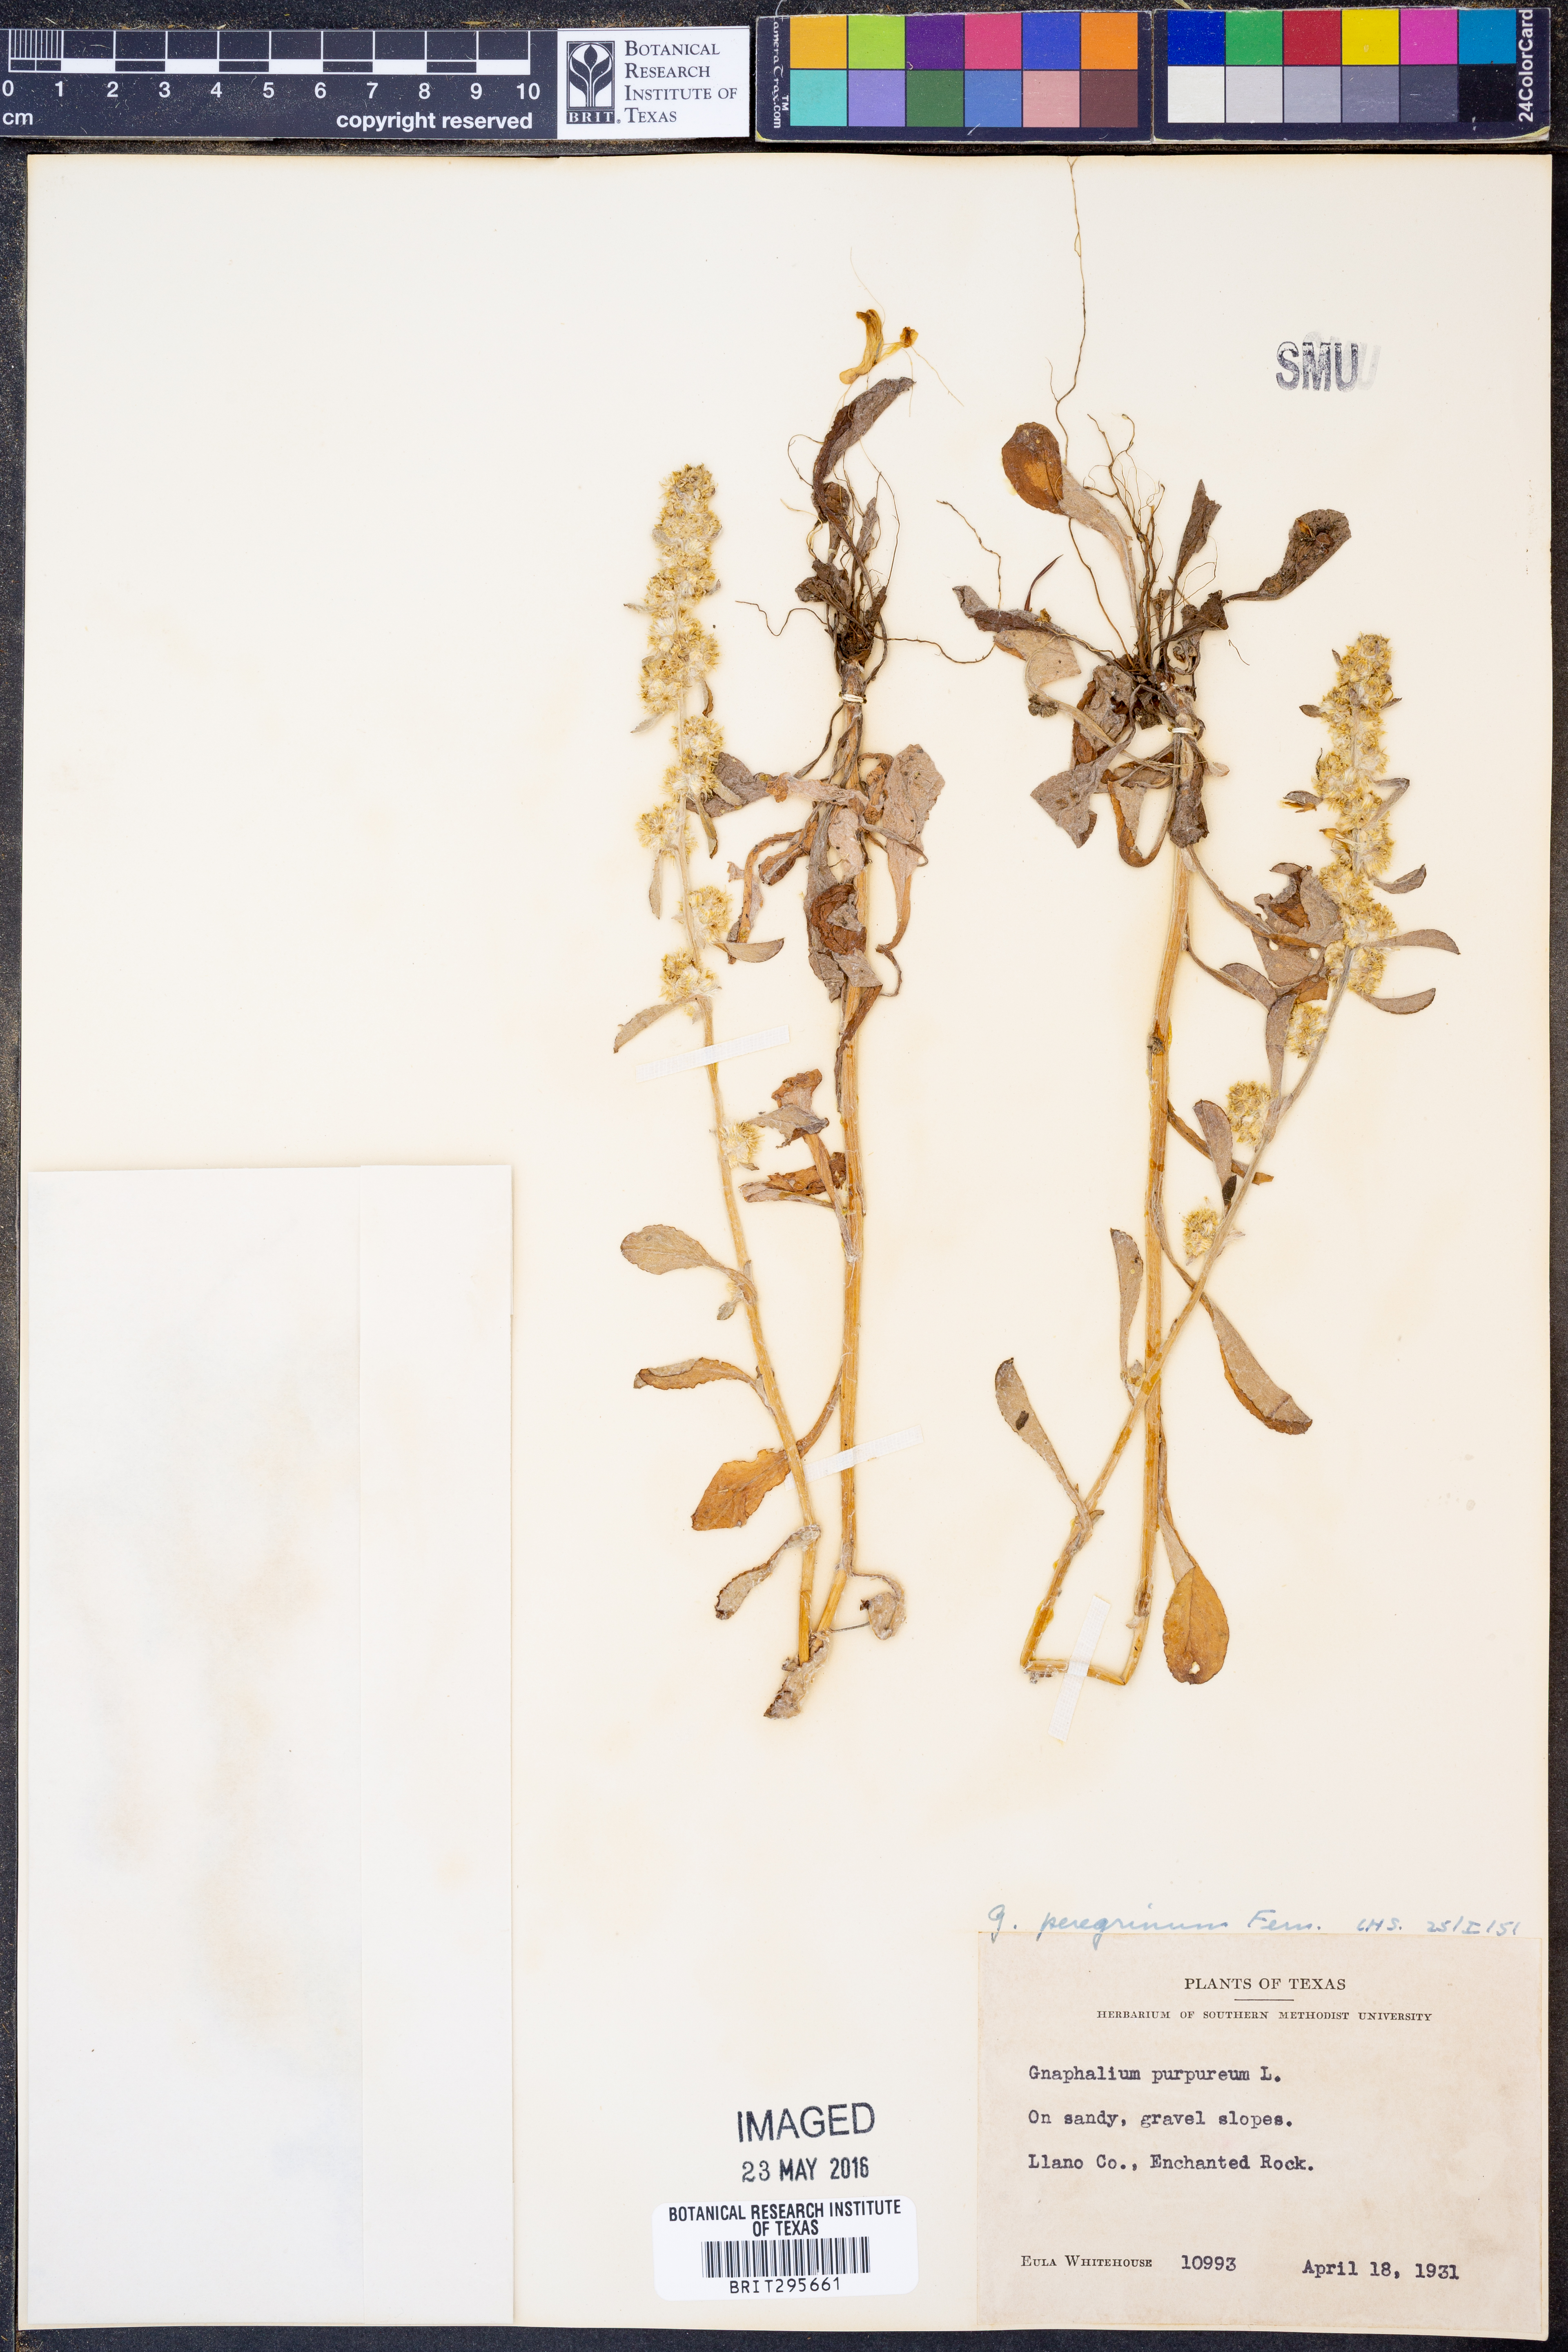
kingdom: Plantae
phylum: Tracheophyta
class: Magnoliopsida
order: Asterales
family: Asteraceae
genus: Gamochaeta
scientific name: Gamochaeta pensylvanica
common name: Pennsylvania everlasting
